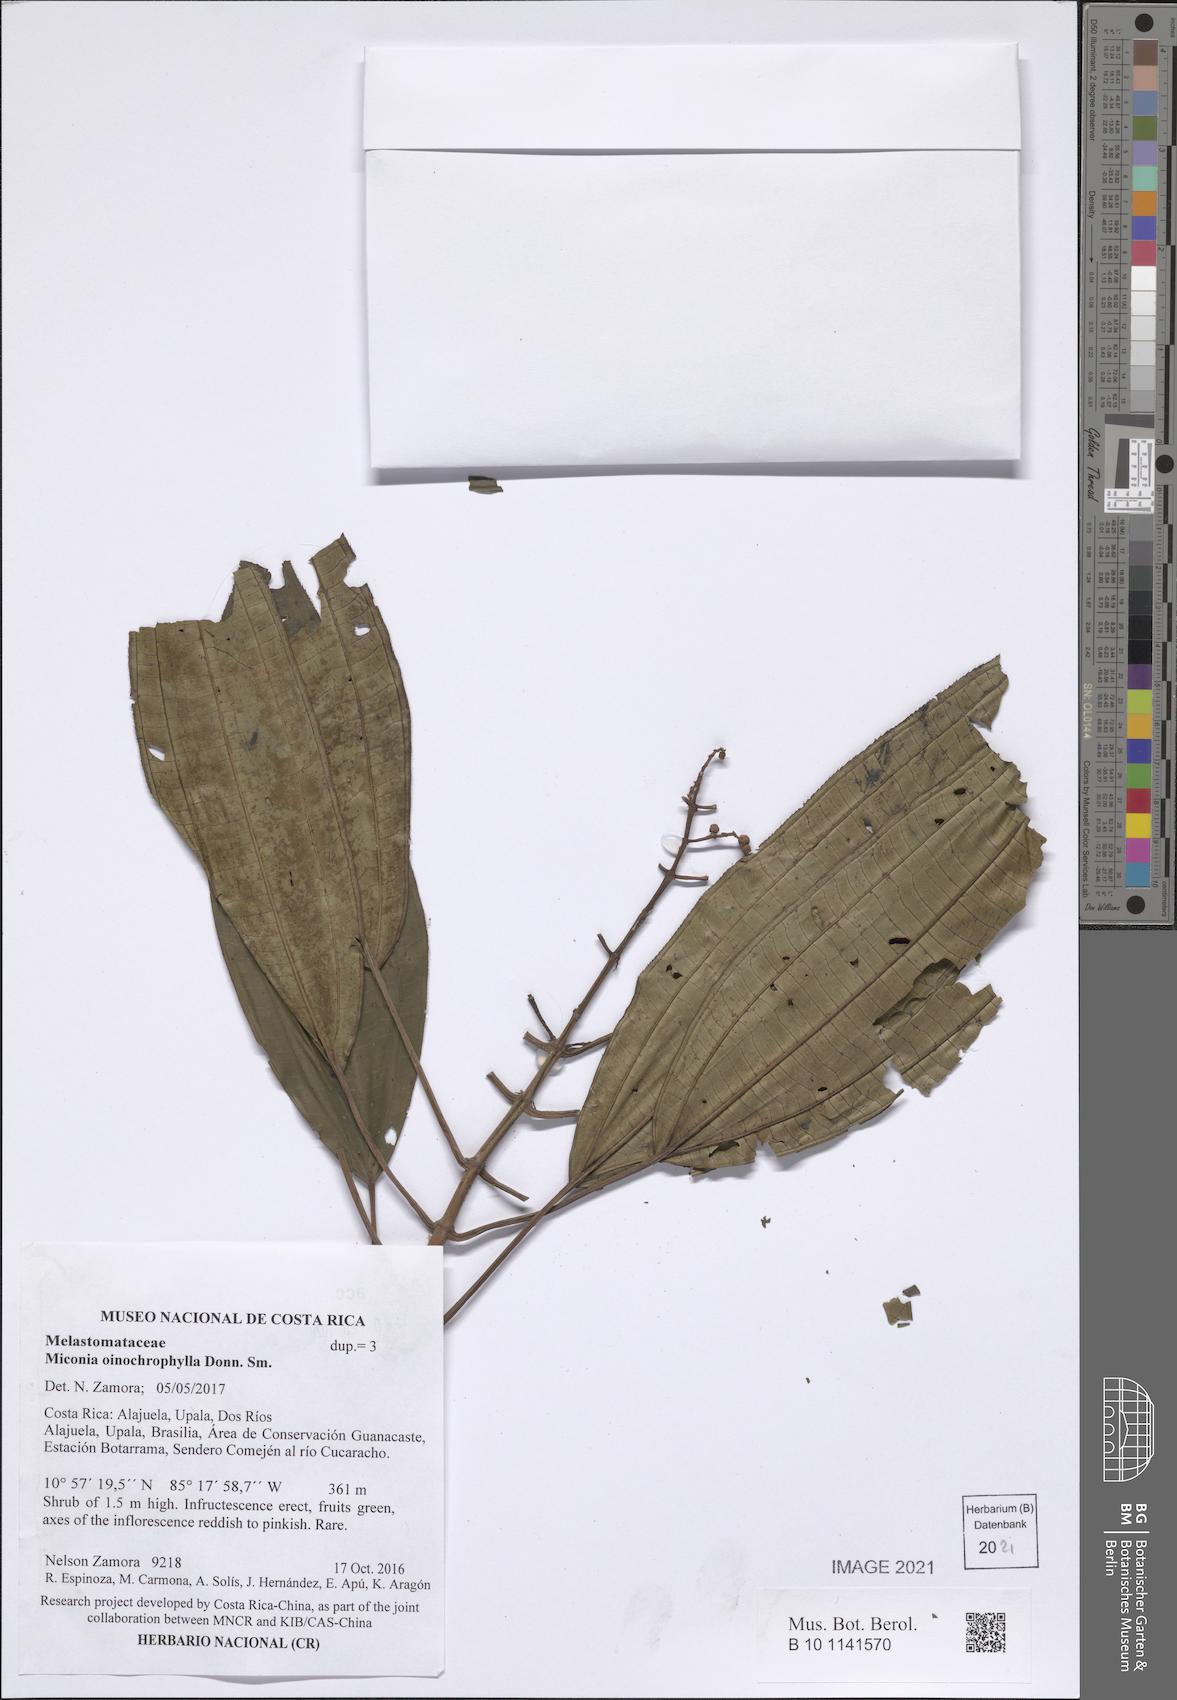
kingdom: Plantae
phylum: Tracheophyta
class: Magnoliopsida
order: Myrtales
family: Melastomataceae
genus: Miconia
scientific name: Miconia oinochrophylla
